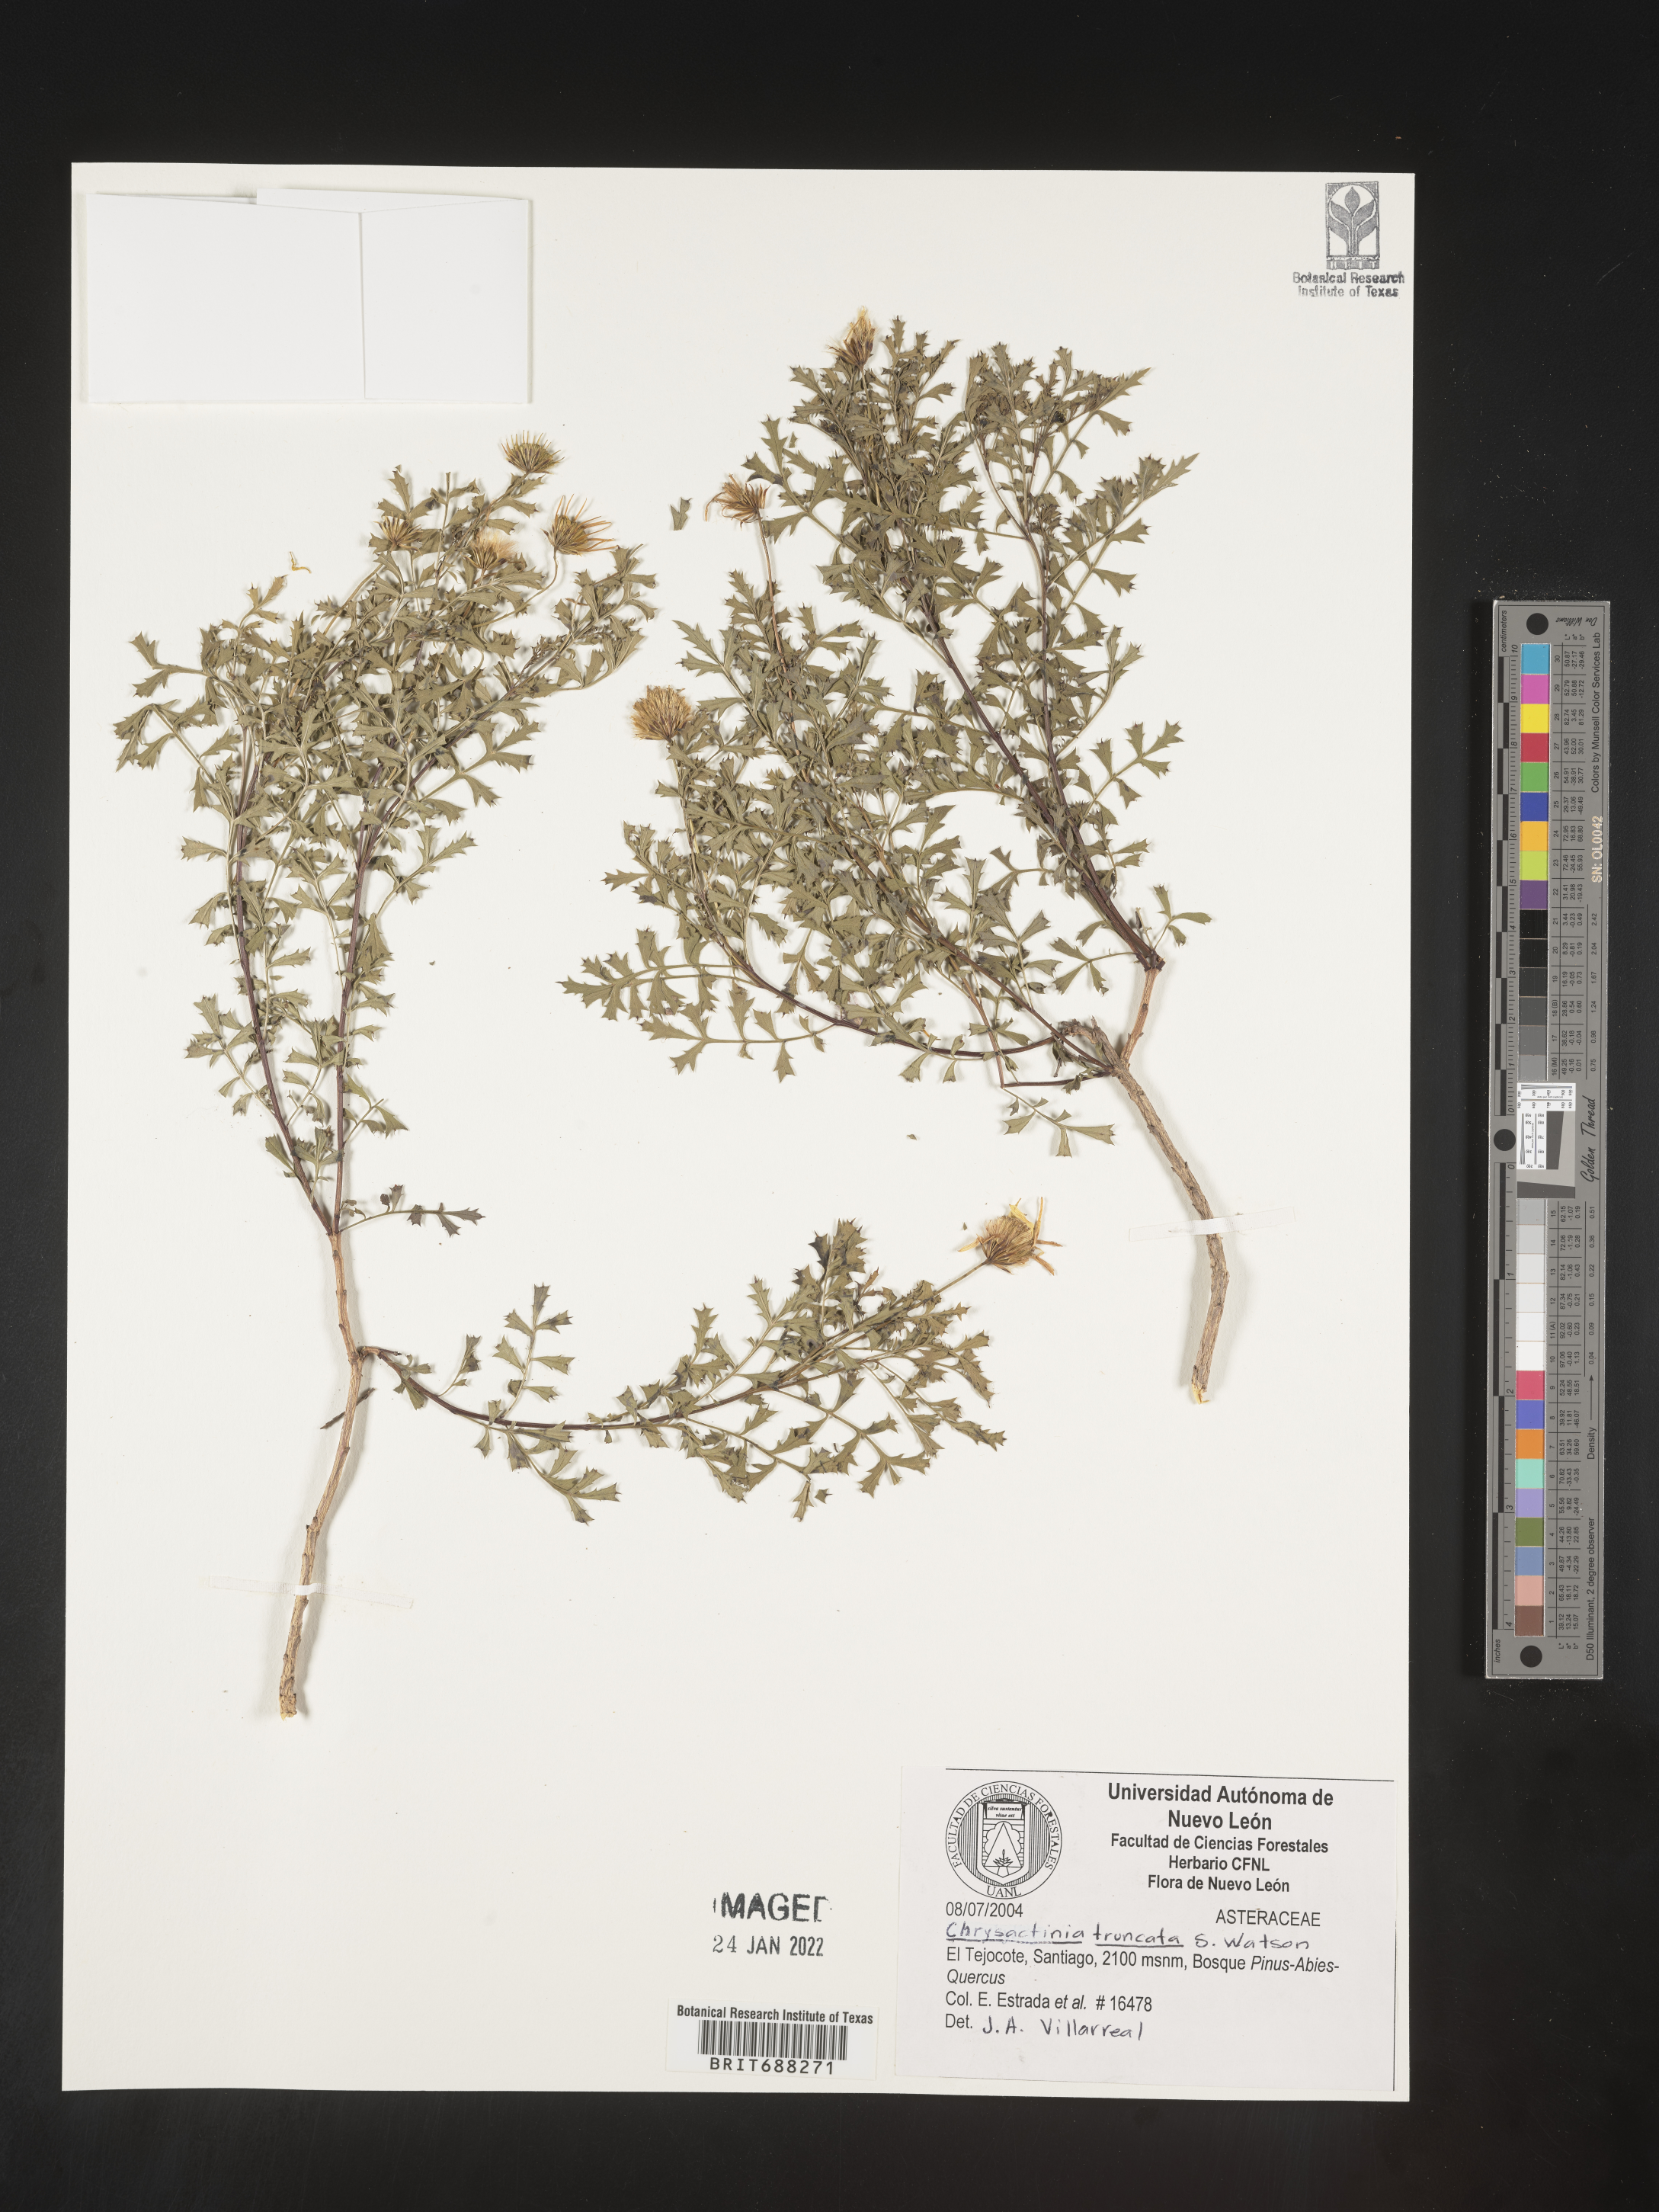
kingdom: Plantae
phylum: Tracheophyta
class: Magnoliopsida
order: Asterales
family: Asteraceae
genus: Chrysactinia
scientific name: Chrysactinia
